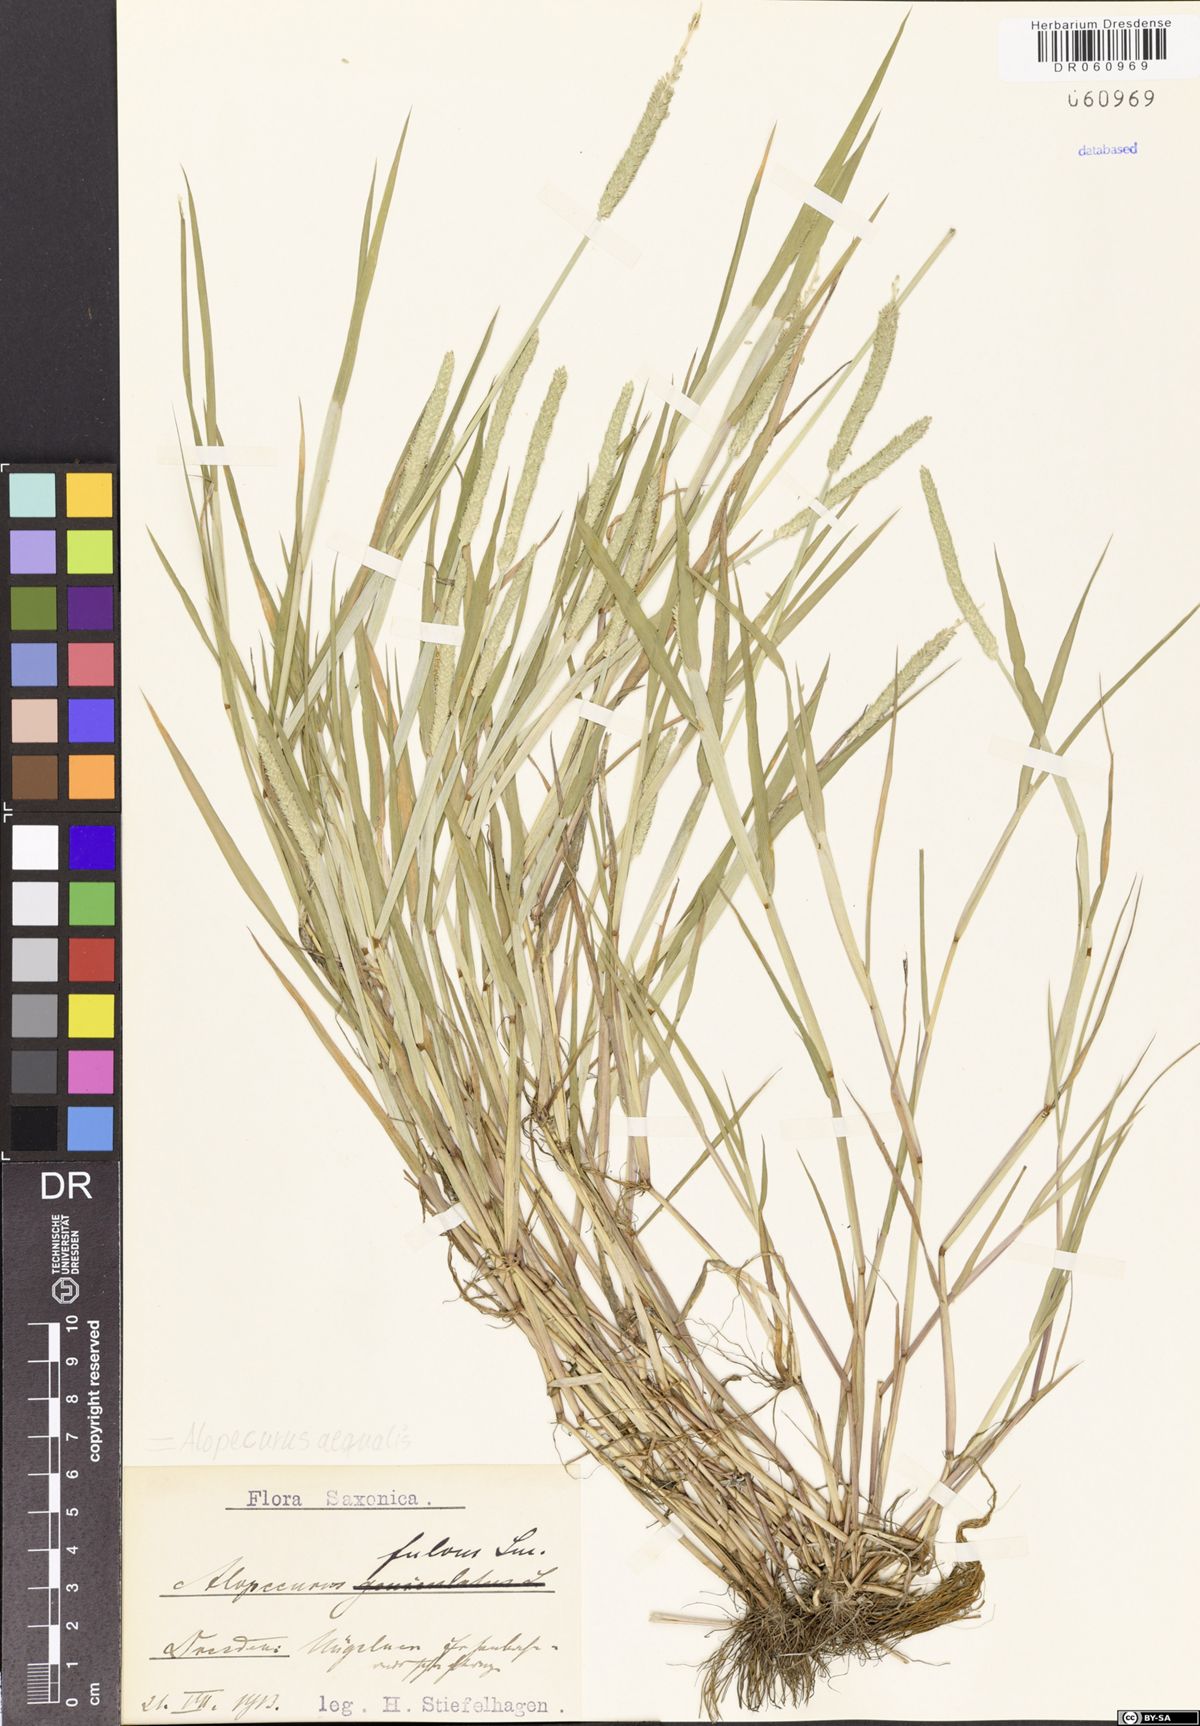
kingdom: Plantae
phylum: Tracheophyta
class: Liliopsida
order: Poales
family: Poaceae
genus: Alopecurus
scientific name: Alopecurus aequalis
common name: Orange foxtail
